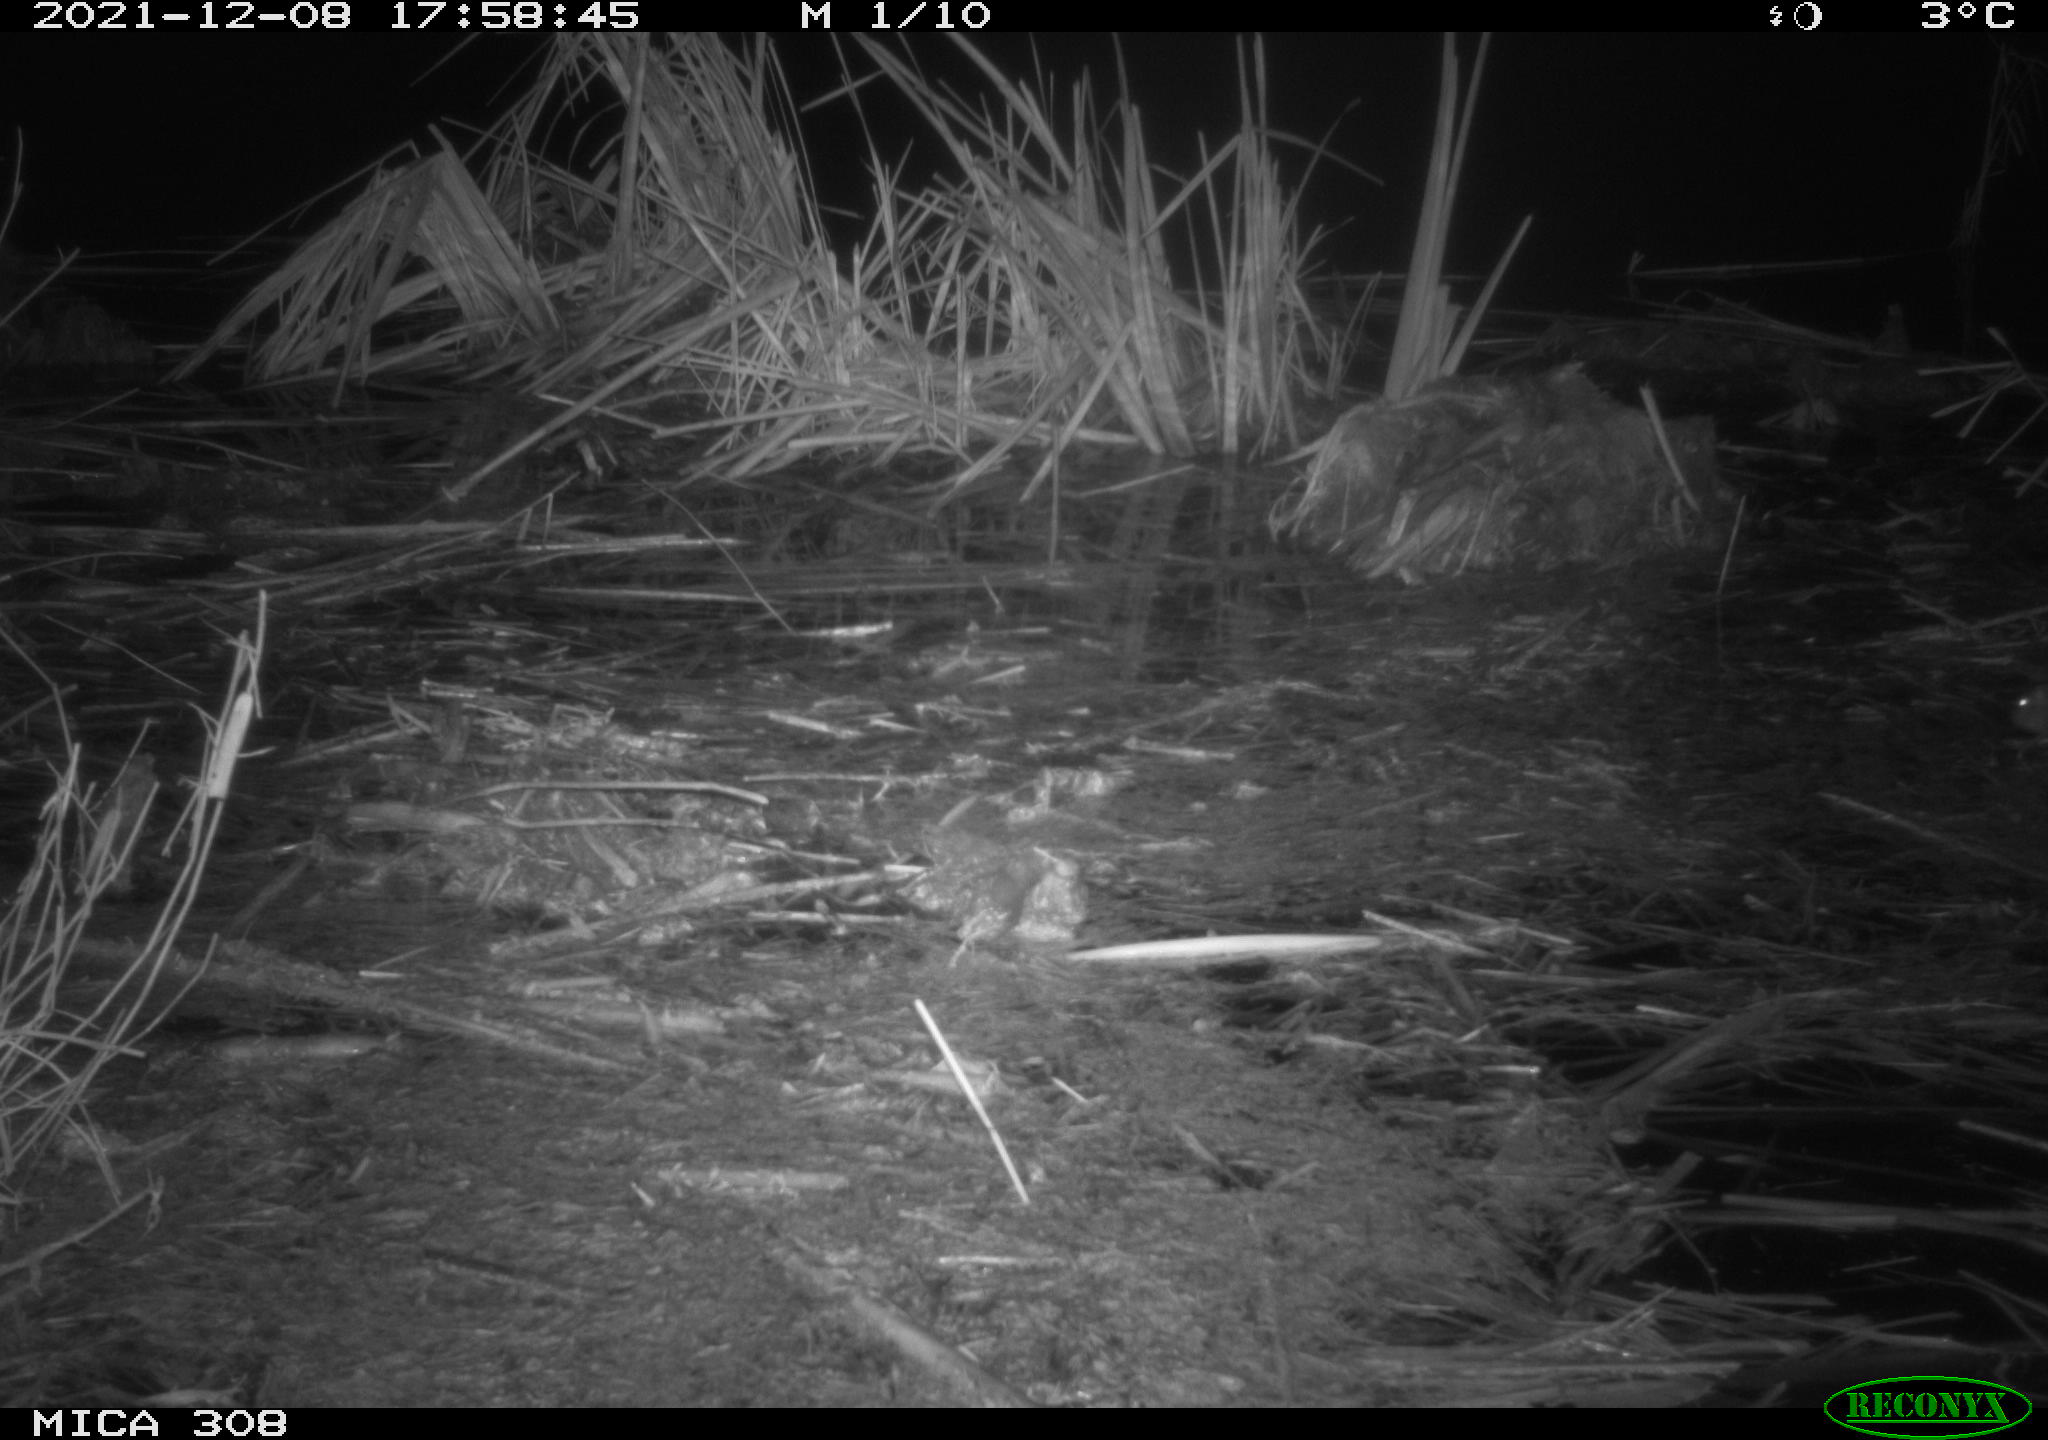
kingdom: Animalia
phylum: Chordata
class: Mammalia
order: Rodentia
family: Muridae
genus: Rattus
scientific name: Rattus norvegicus
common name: Brown rat
